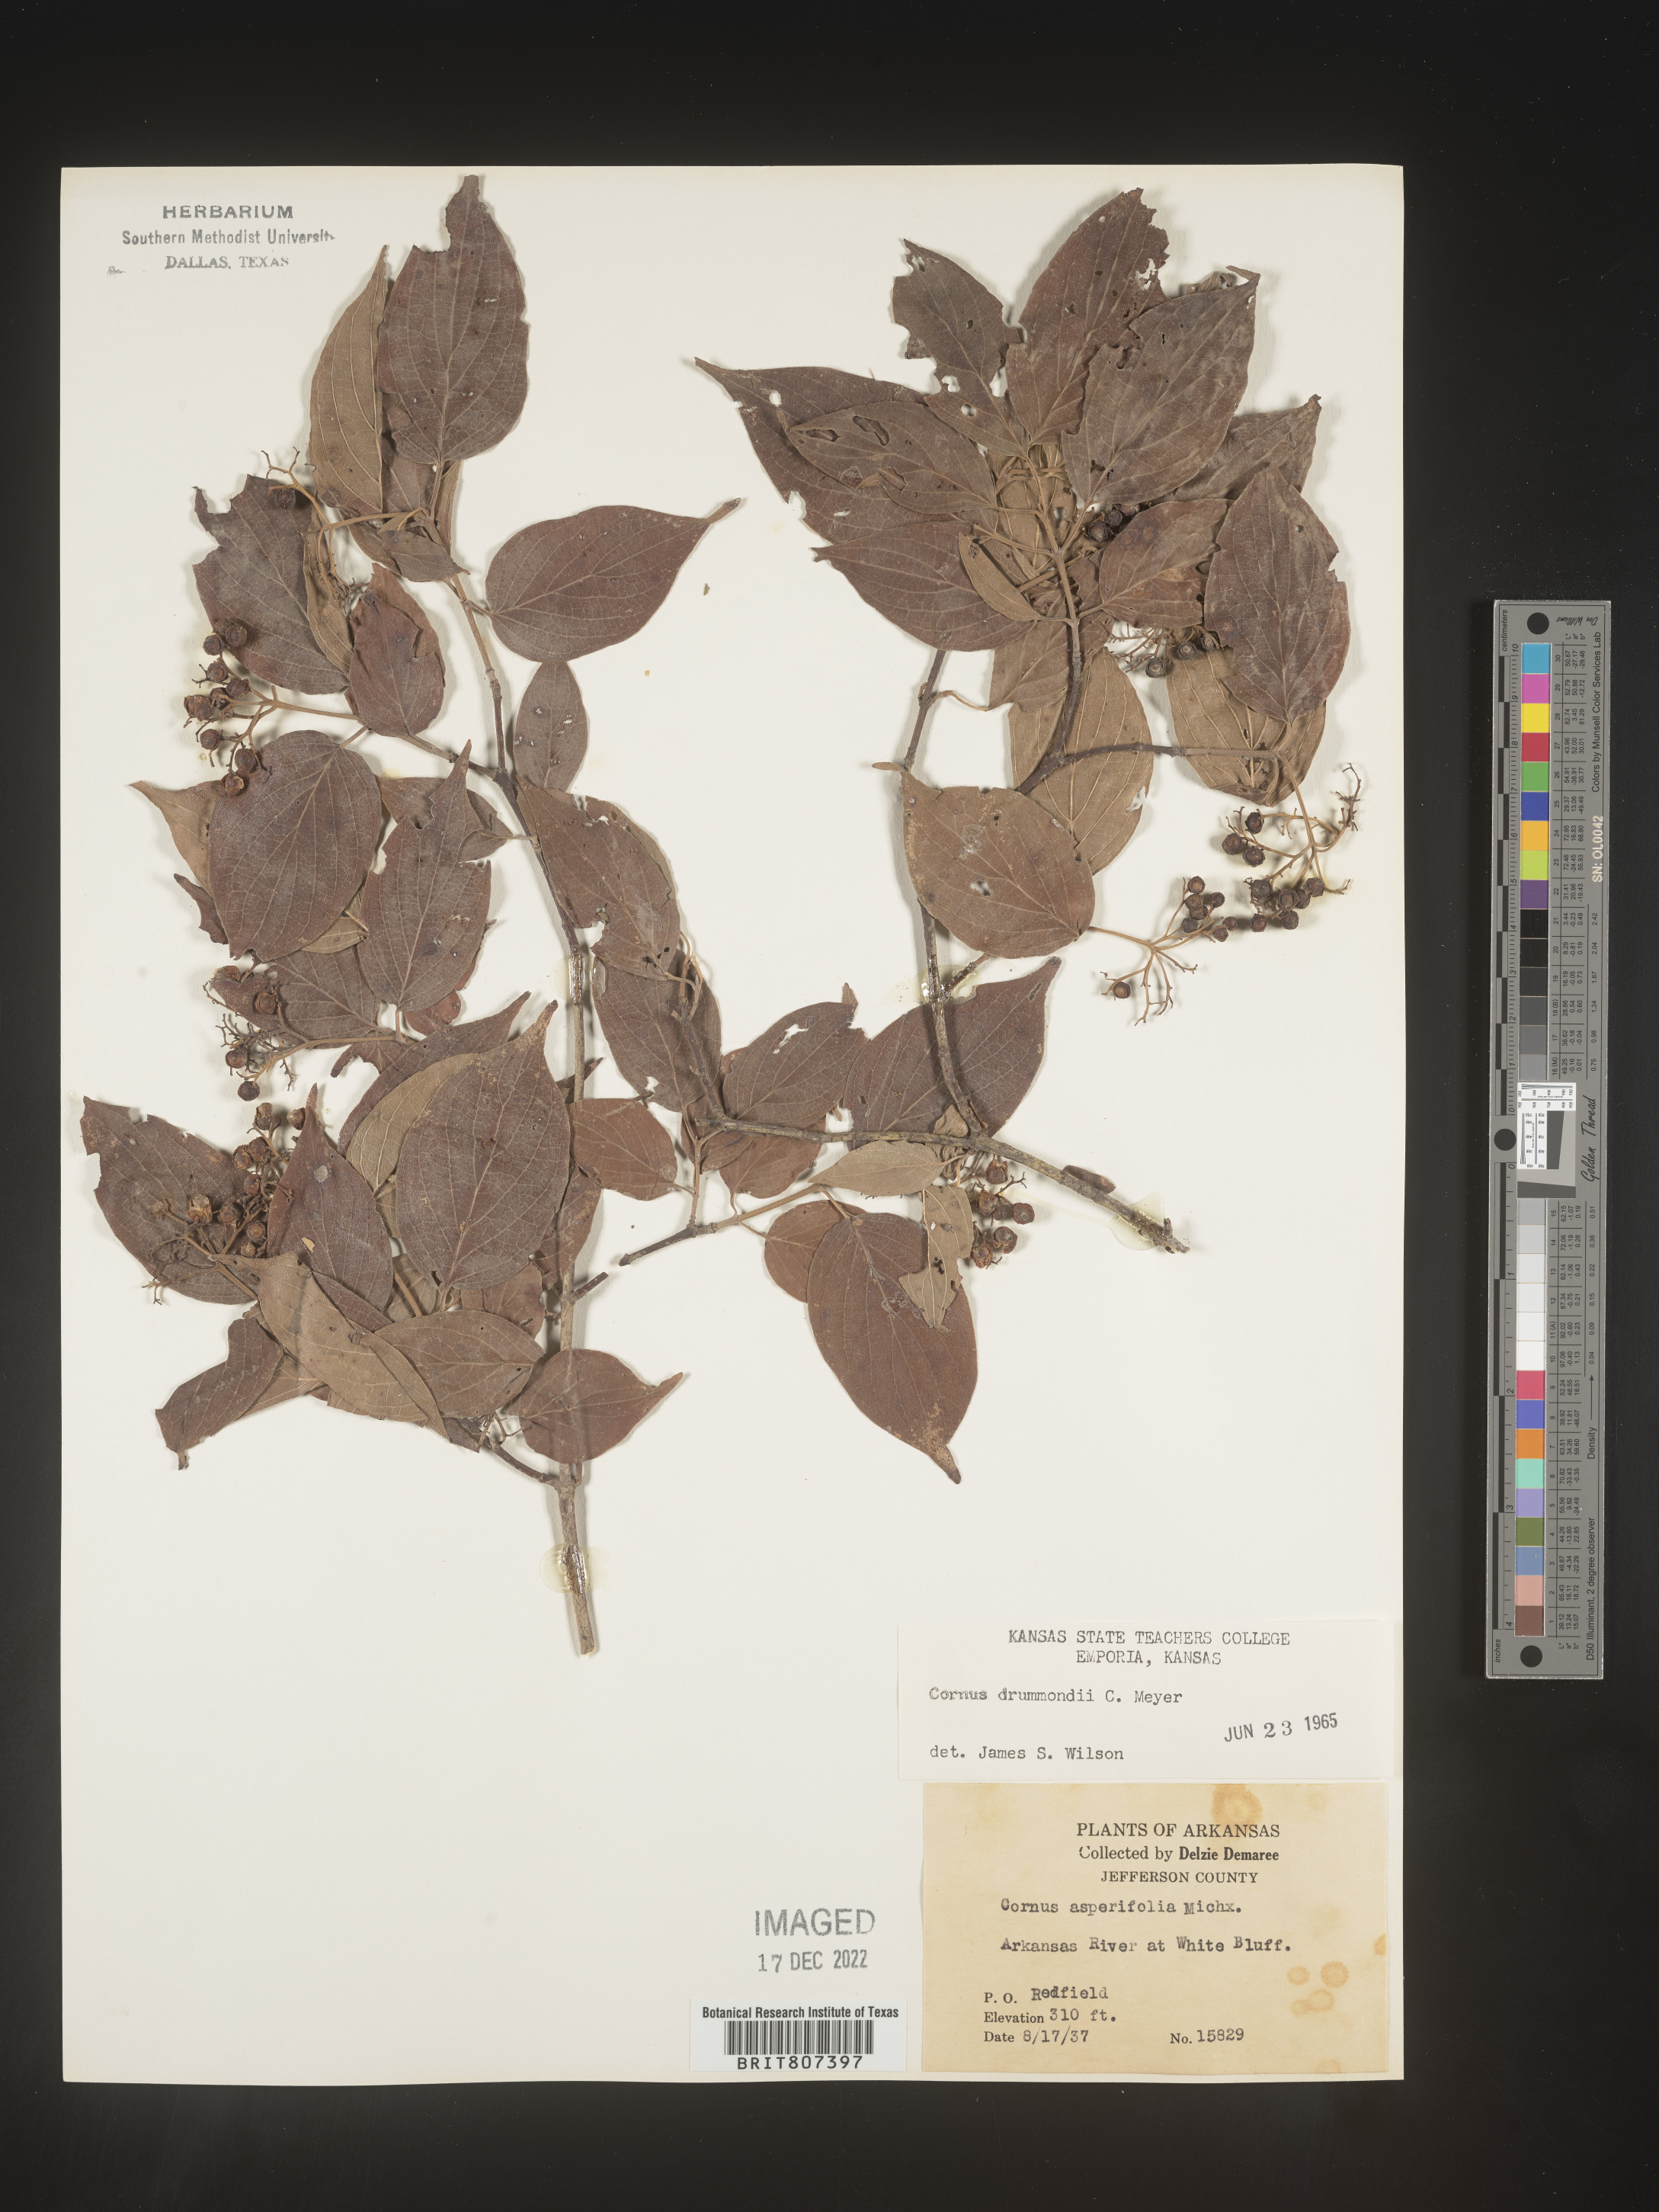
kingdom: Plantae
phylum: Tracheophyta
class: Magnoliopsida
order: Cornales
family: Cornaceae
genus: Cornus
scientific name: Cornus drummondii
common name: Rough-leaf dogwood
